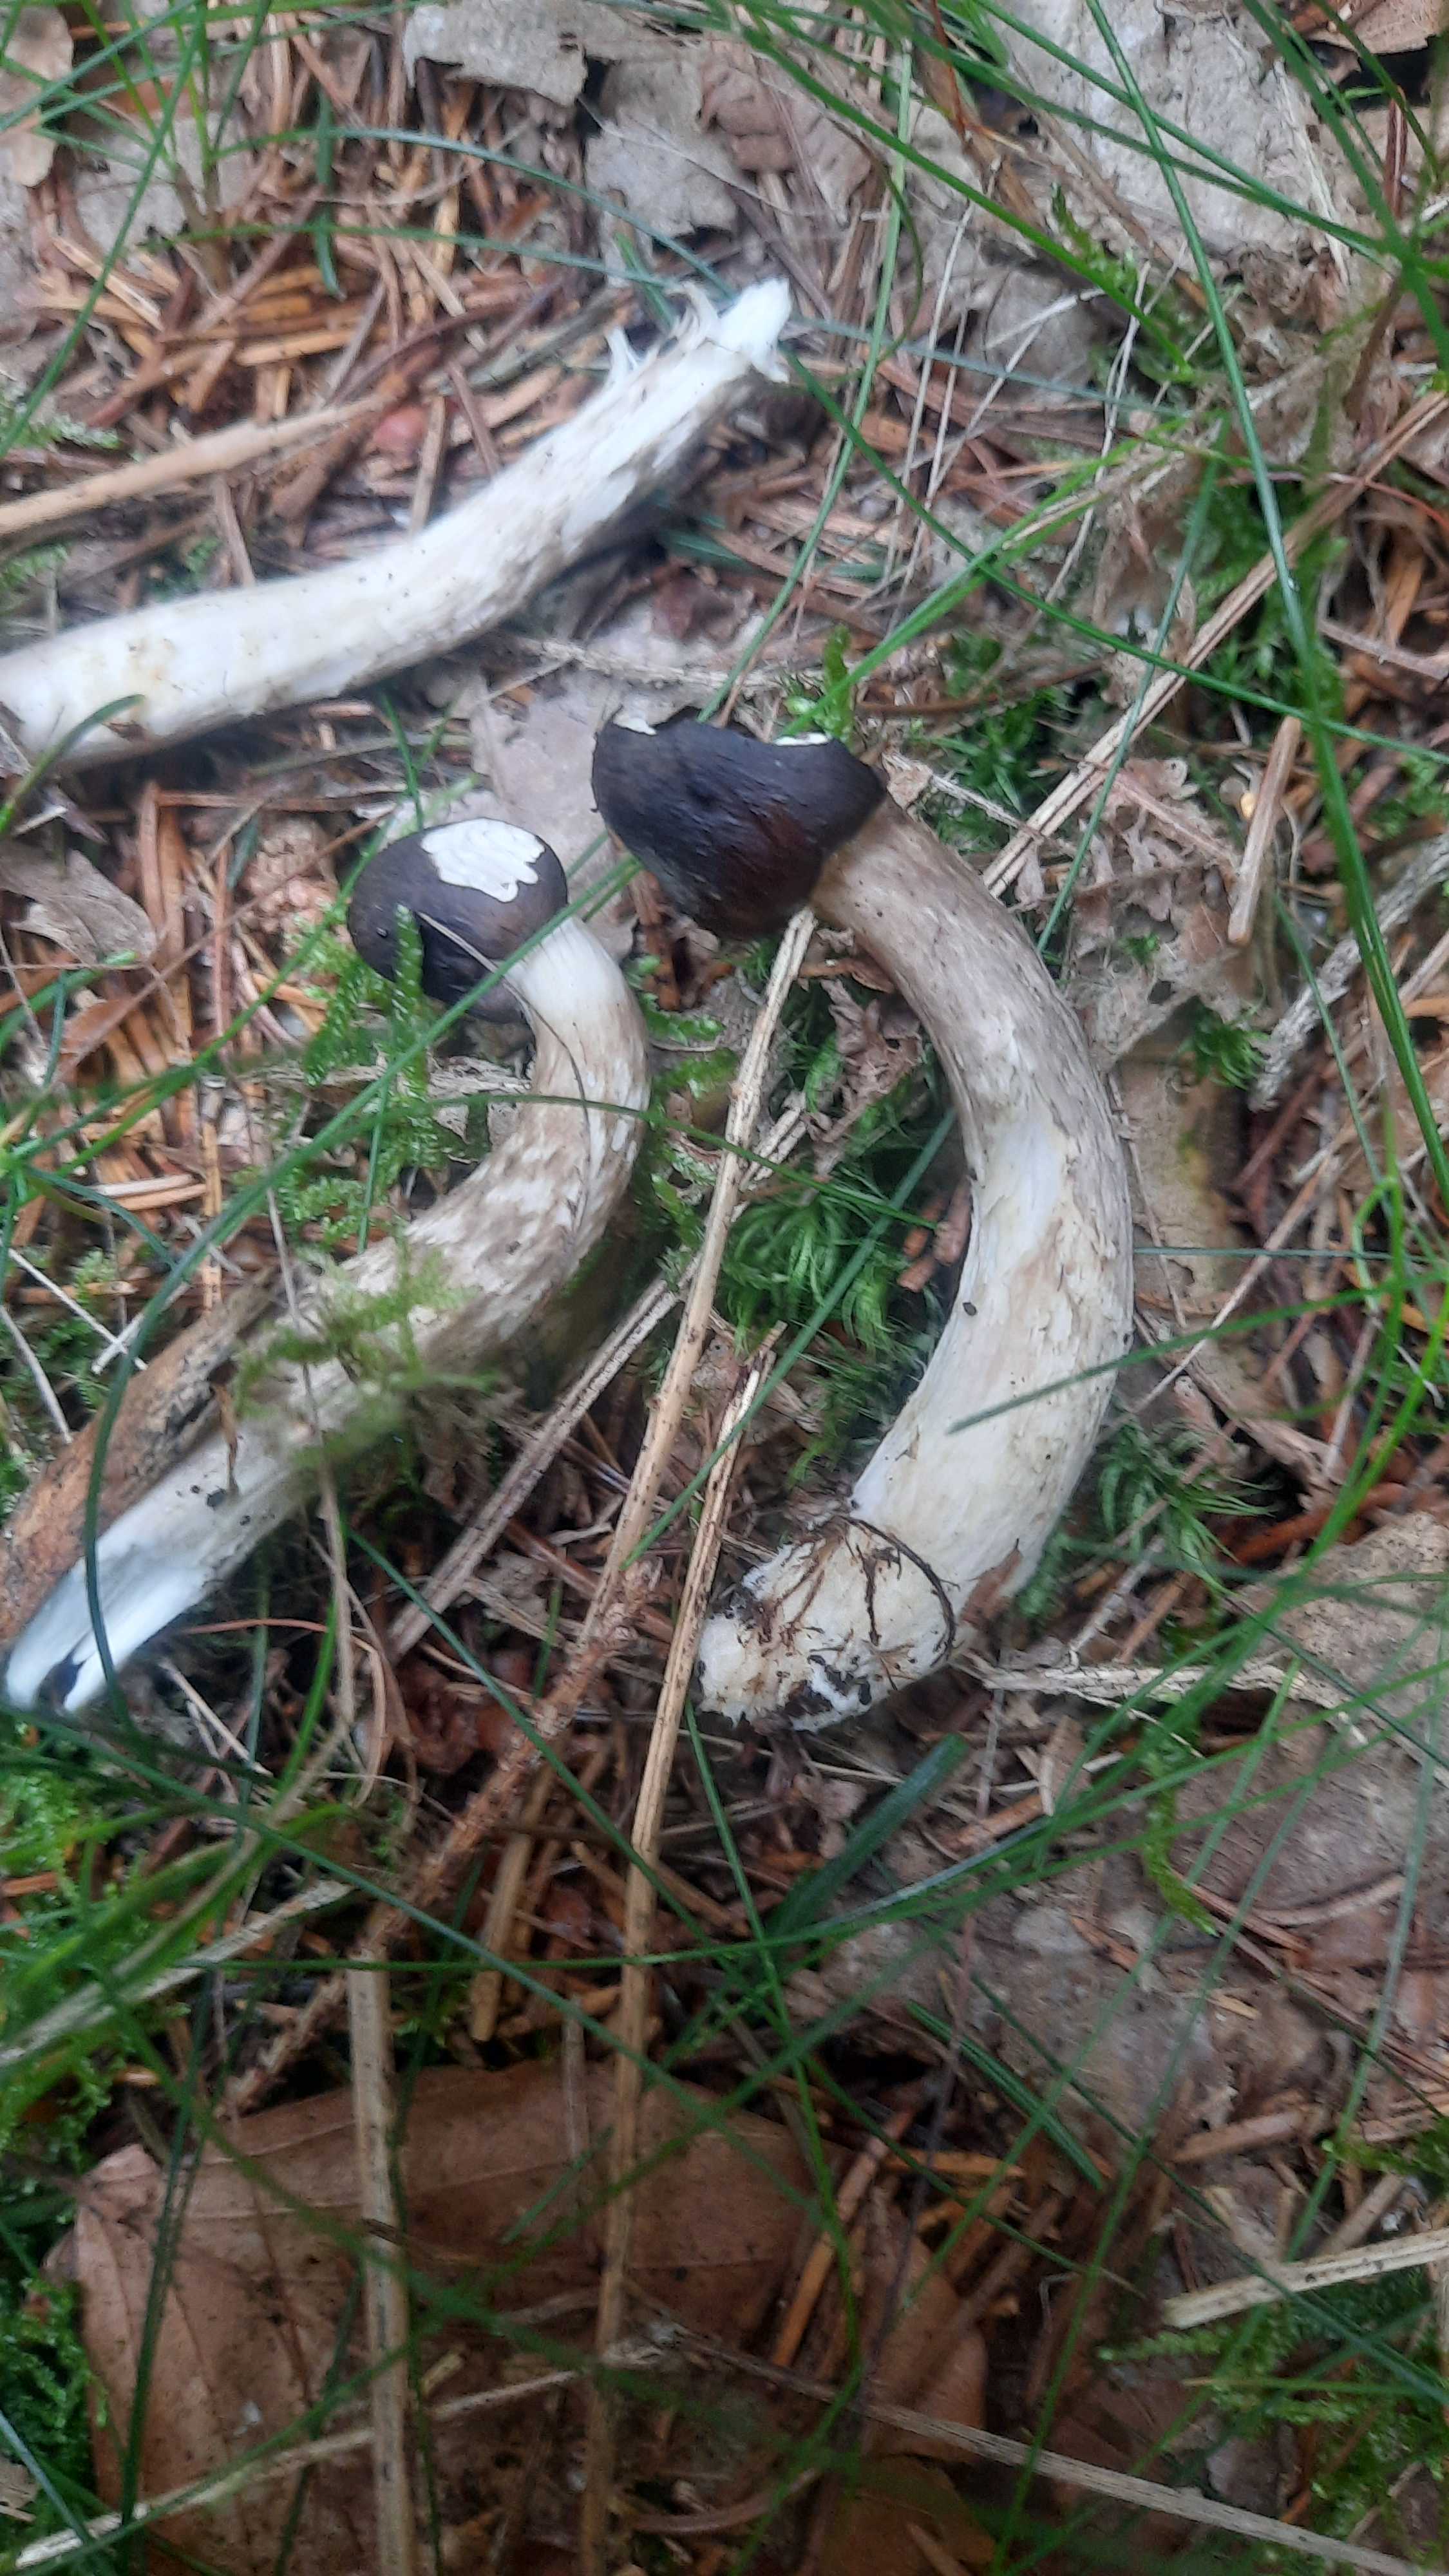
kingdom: Fungi
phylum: Basidiomycota
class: Agaricomycetes
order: Agaricales
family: Hygrophoraceae
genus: Hygrophorus
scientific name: Hygrophorus olivaceoalbus
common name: hvidbrun sneglehat
